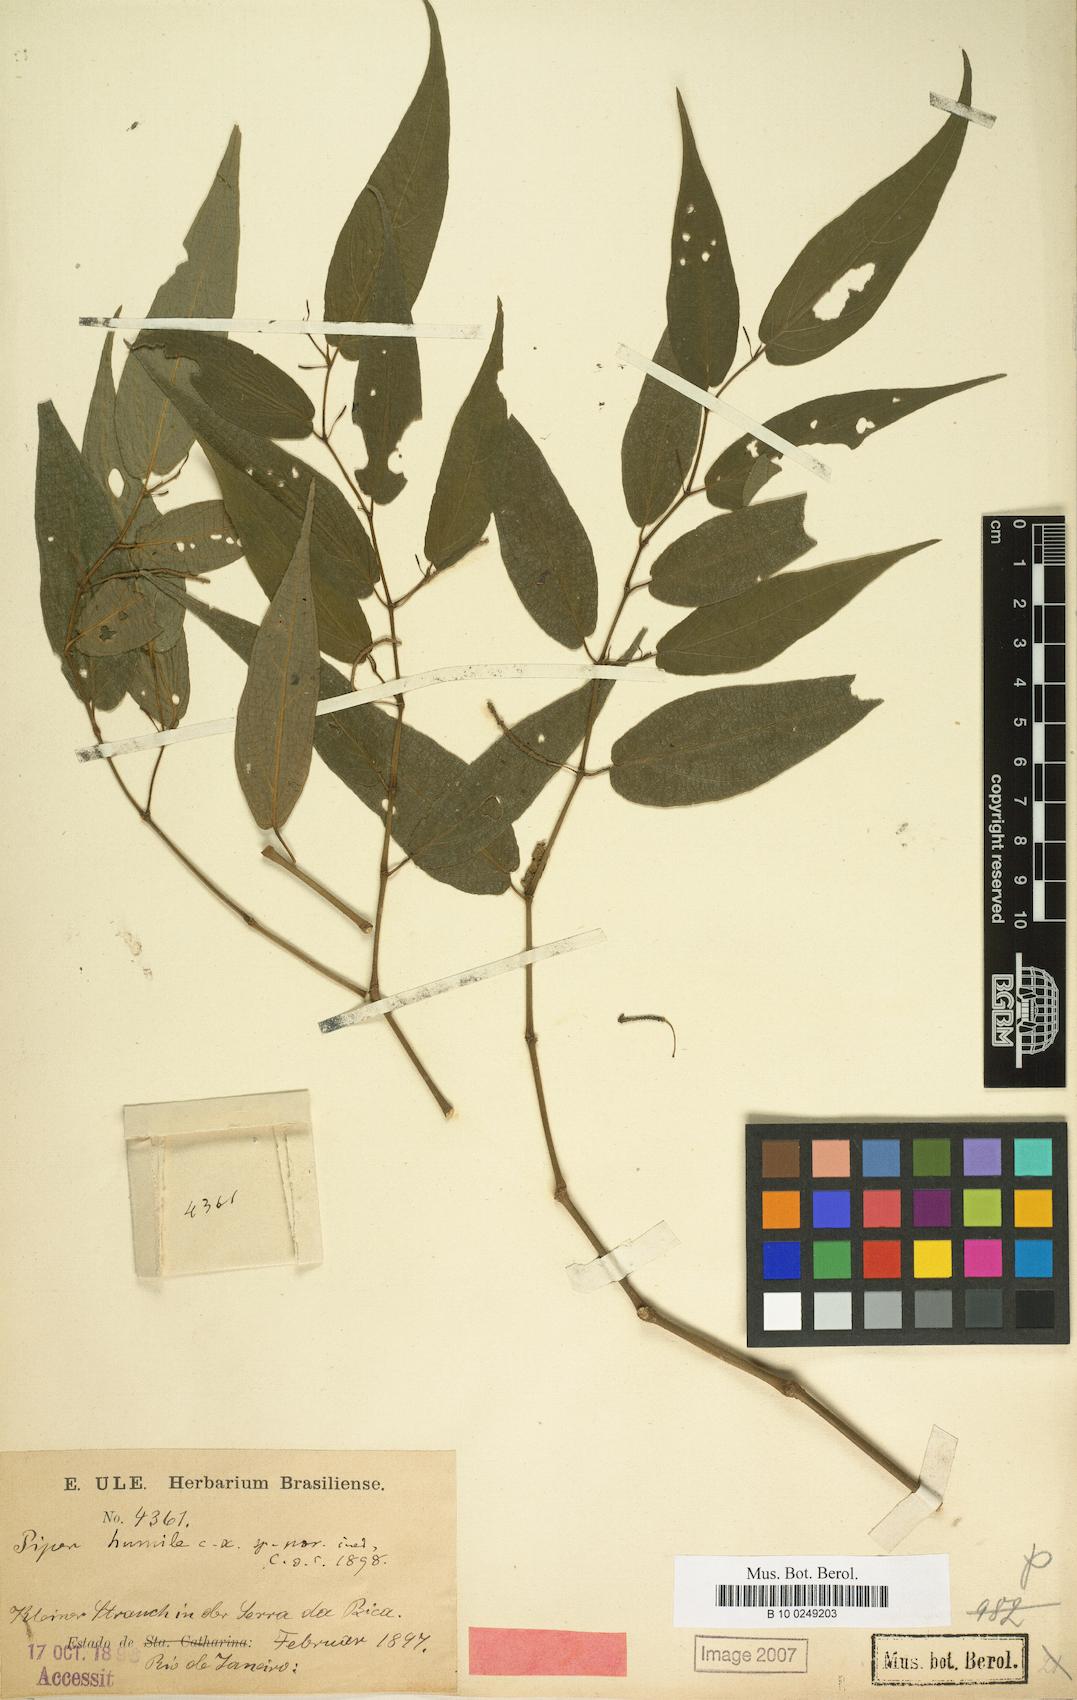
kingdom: Plantae
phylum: Tracheophyta
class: Magnoliopsida
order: Piperales
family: Piperaceae
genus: Piper
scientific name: Piper trigonodrupum
